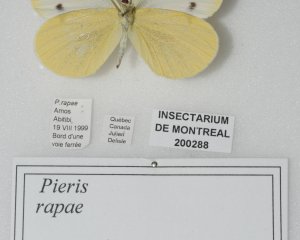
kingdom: Animalia
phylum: Arthropoda
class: Insecta
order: Lepidoptera
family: Pieridae
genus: Pieris
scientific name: Pieris rapae
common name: Cabbage White
